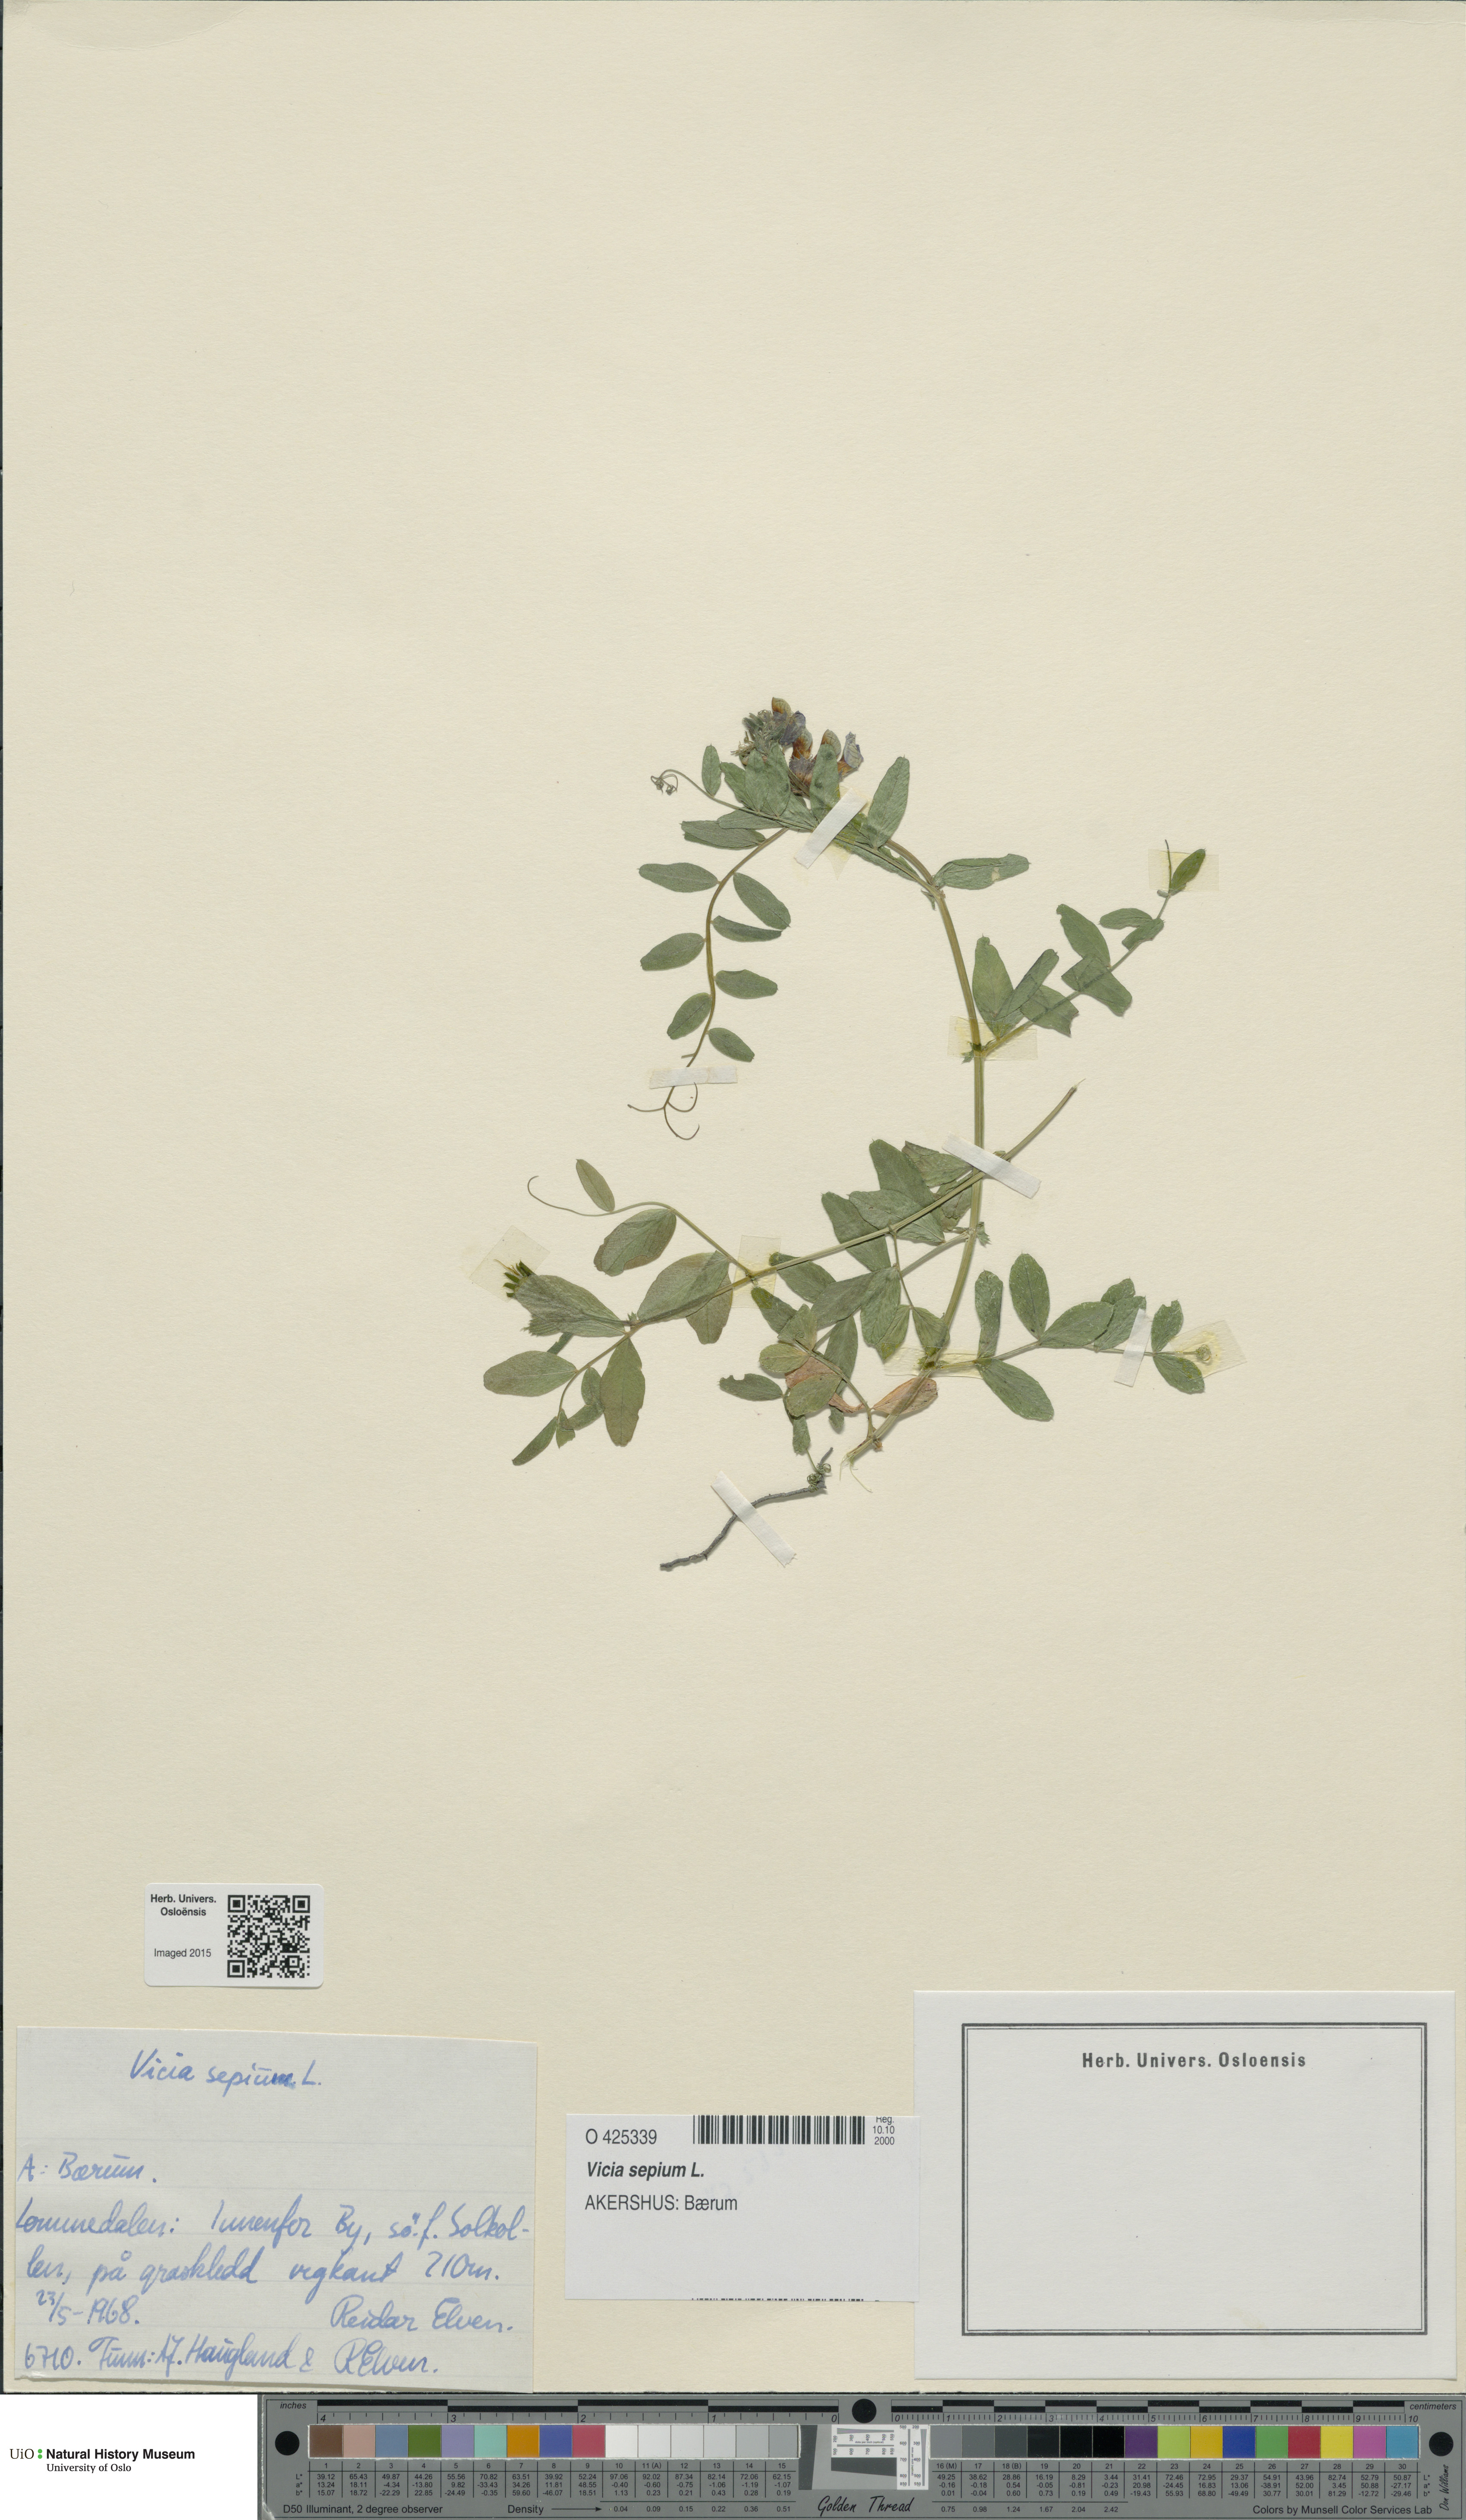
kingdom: Plantae
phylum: Tracheophyta
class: Magnoliopsida
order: Fabales
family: Fabaceae
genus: Vicia
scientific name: Vicia sepium
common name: Bush vetch
